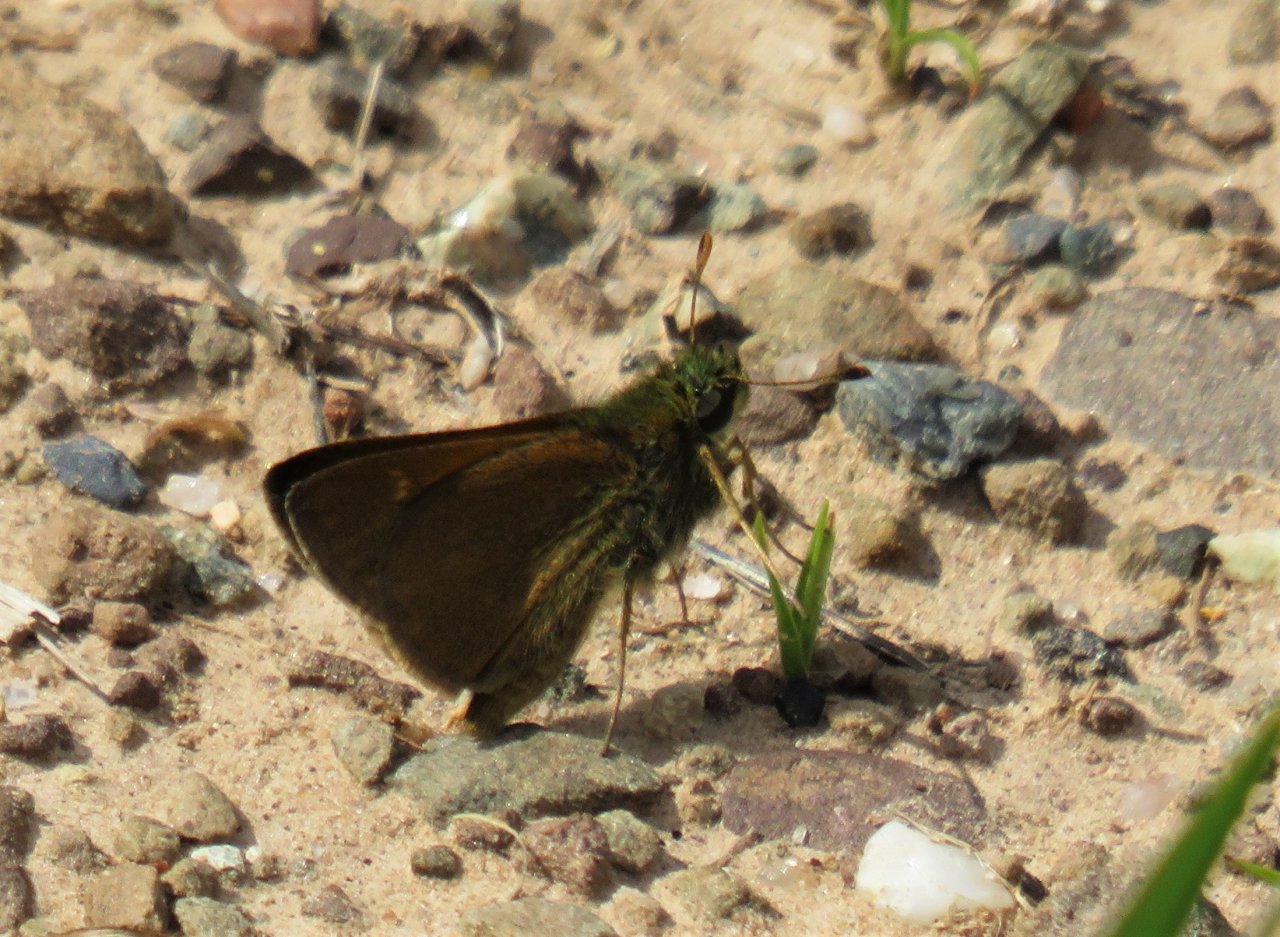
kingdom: Animalia
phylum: Arthropoda
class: Insecta
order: Lepidoptera
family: Hesperiidae
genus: Polites
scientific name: Polites themistocles
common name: Tawny-edged Skipper
